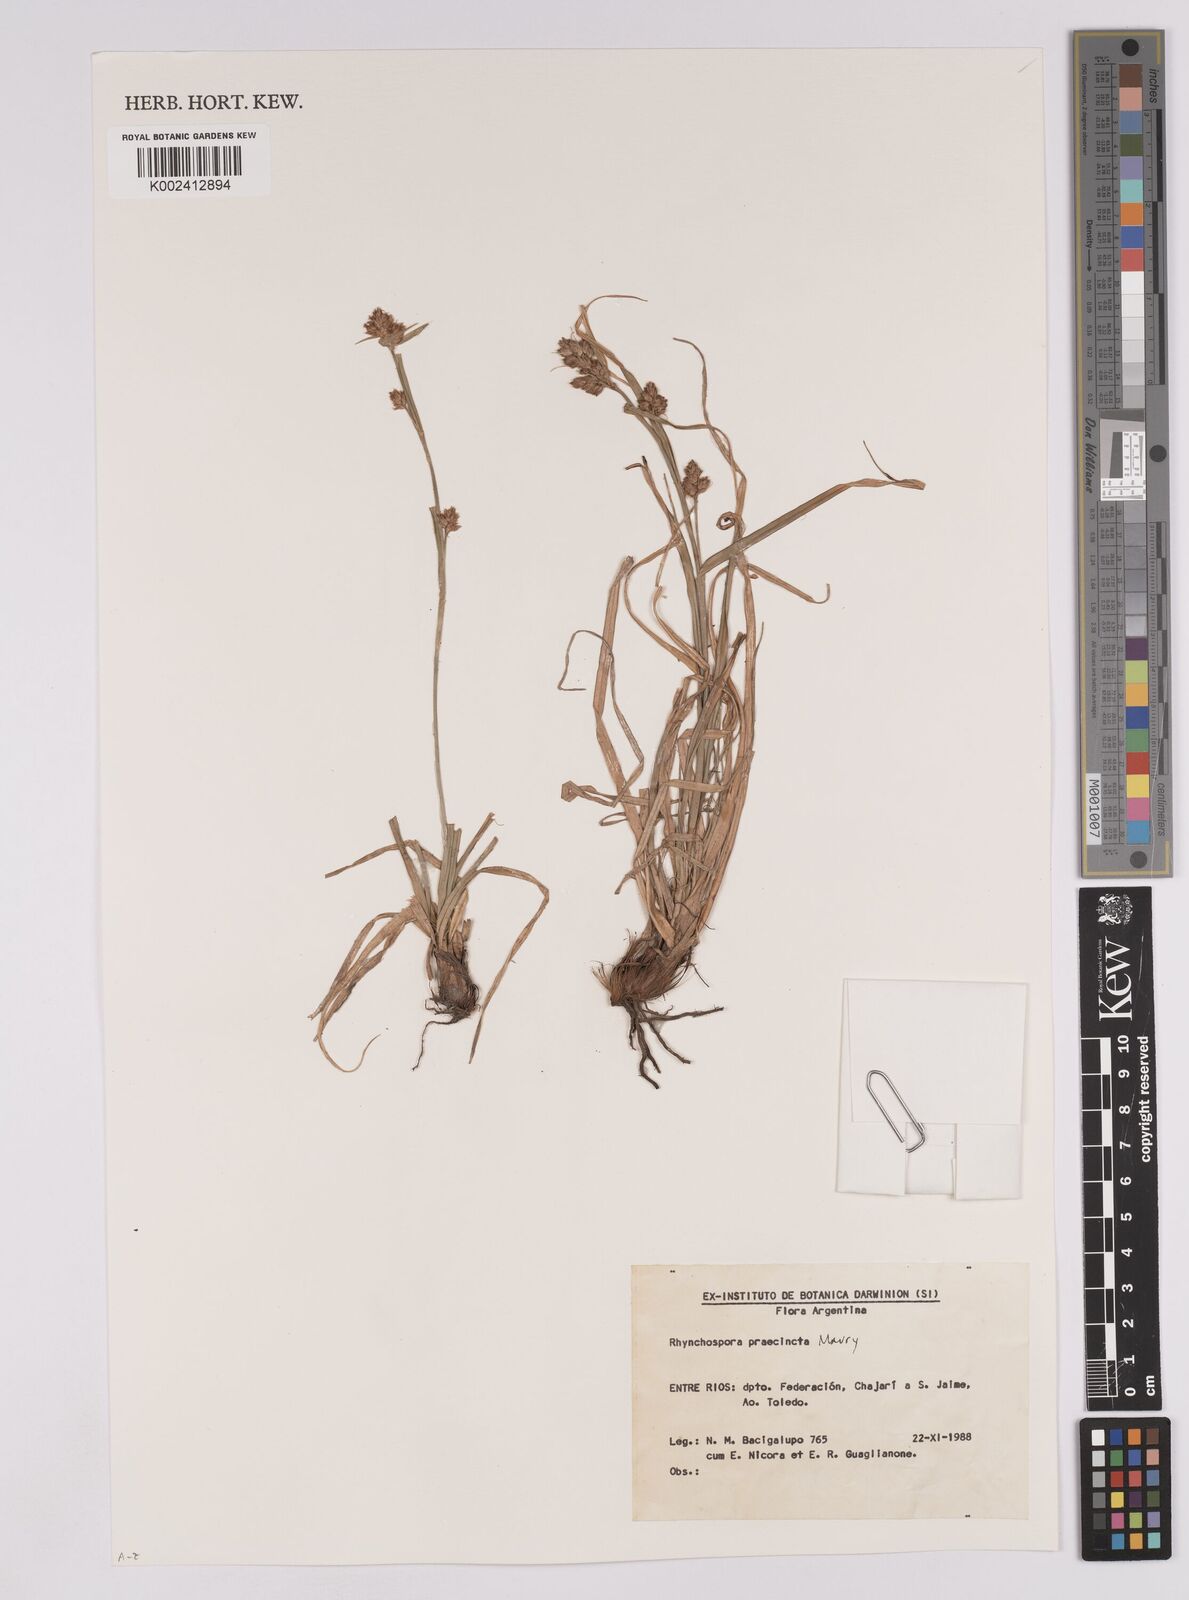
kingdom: Plantae
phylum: Tracheophyta
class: Liliopsida
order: Poales
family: Cyperaceae
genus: Rhynchospora
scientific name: Rhynchospora praecincta
